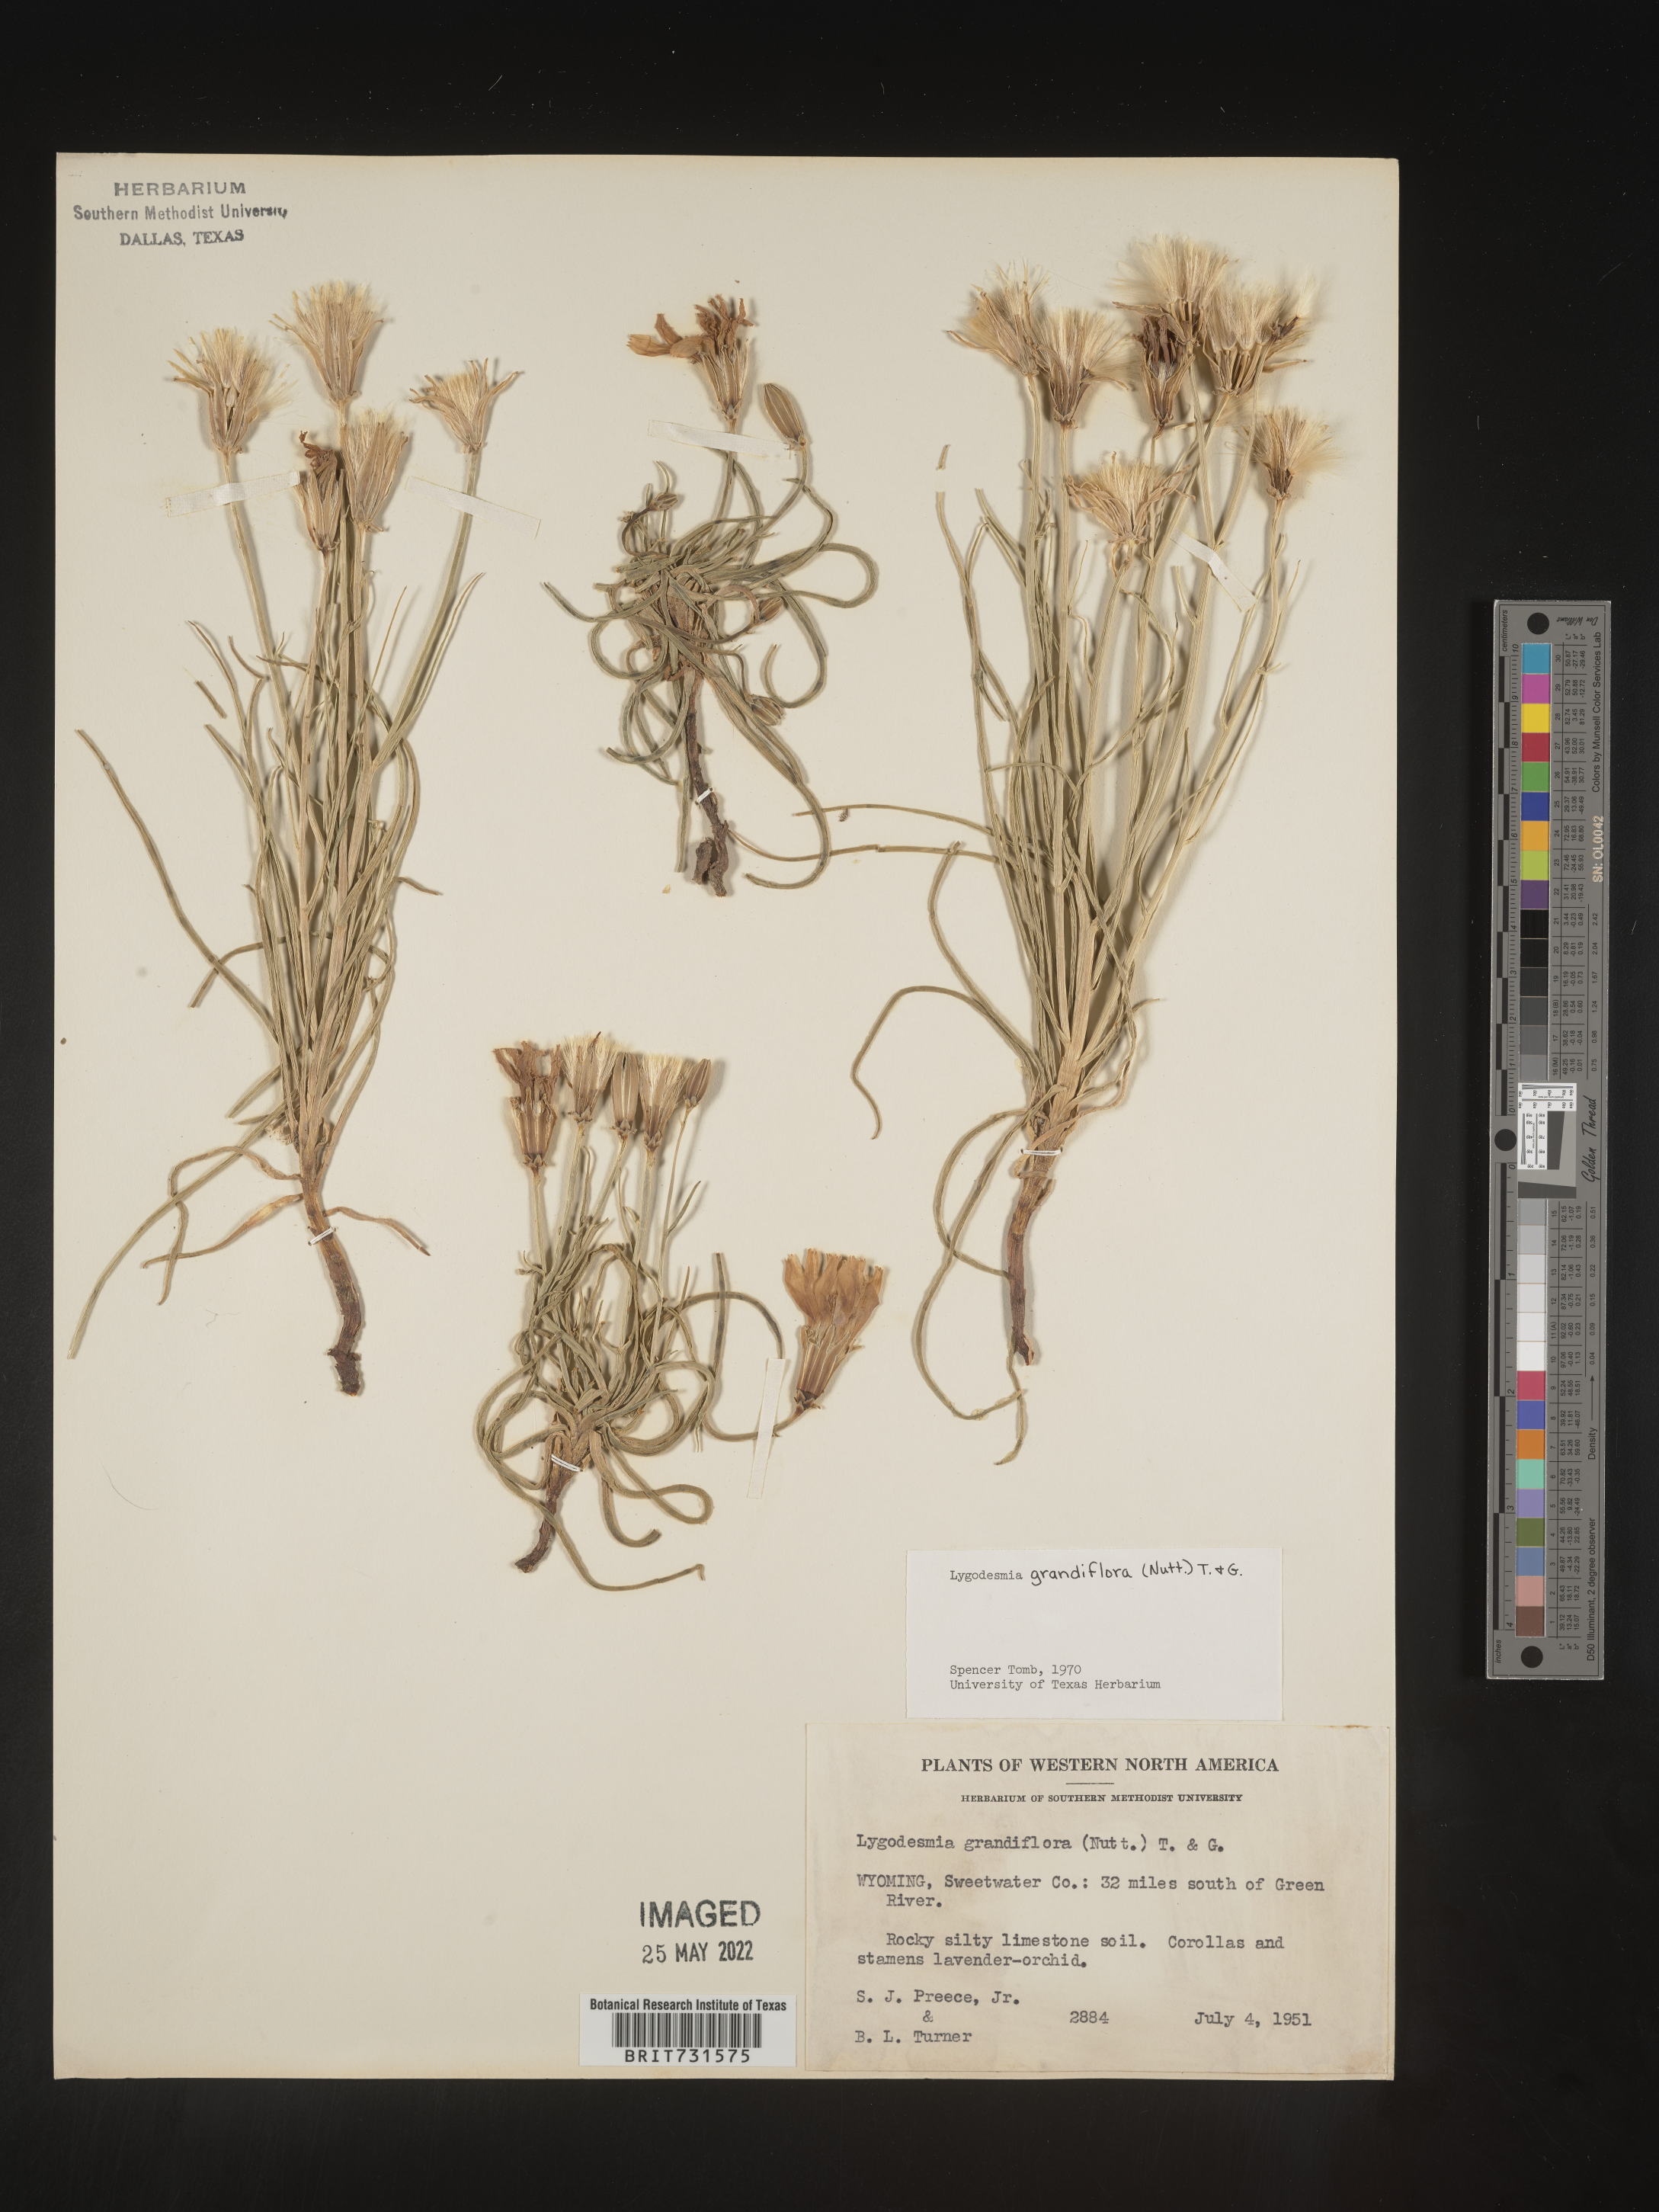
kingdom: Plantae
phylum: Tracheophyta
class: Magnoliopsida
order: Asterales
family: Asteraceae
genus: Lygodesmia
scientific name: Lygodesmia grandiflora
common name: Showy rush-pink
